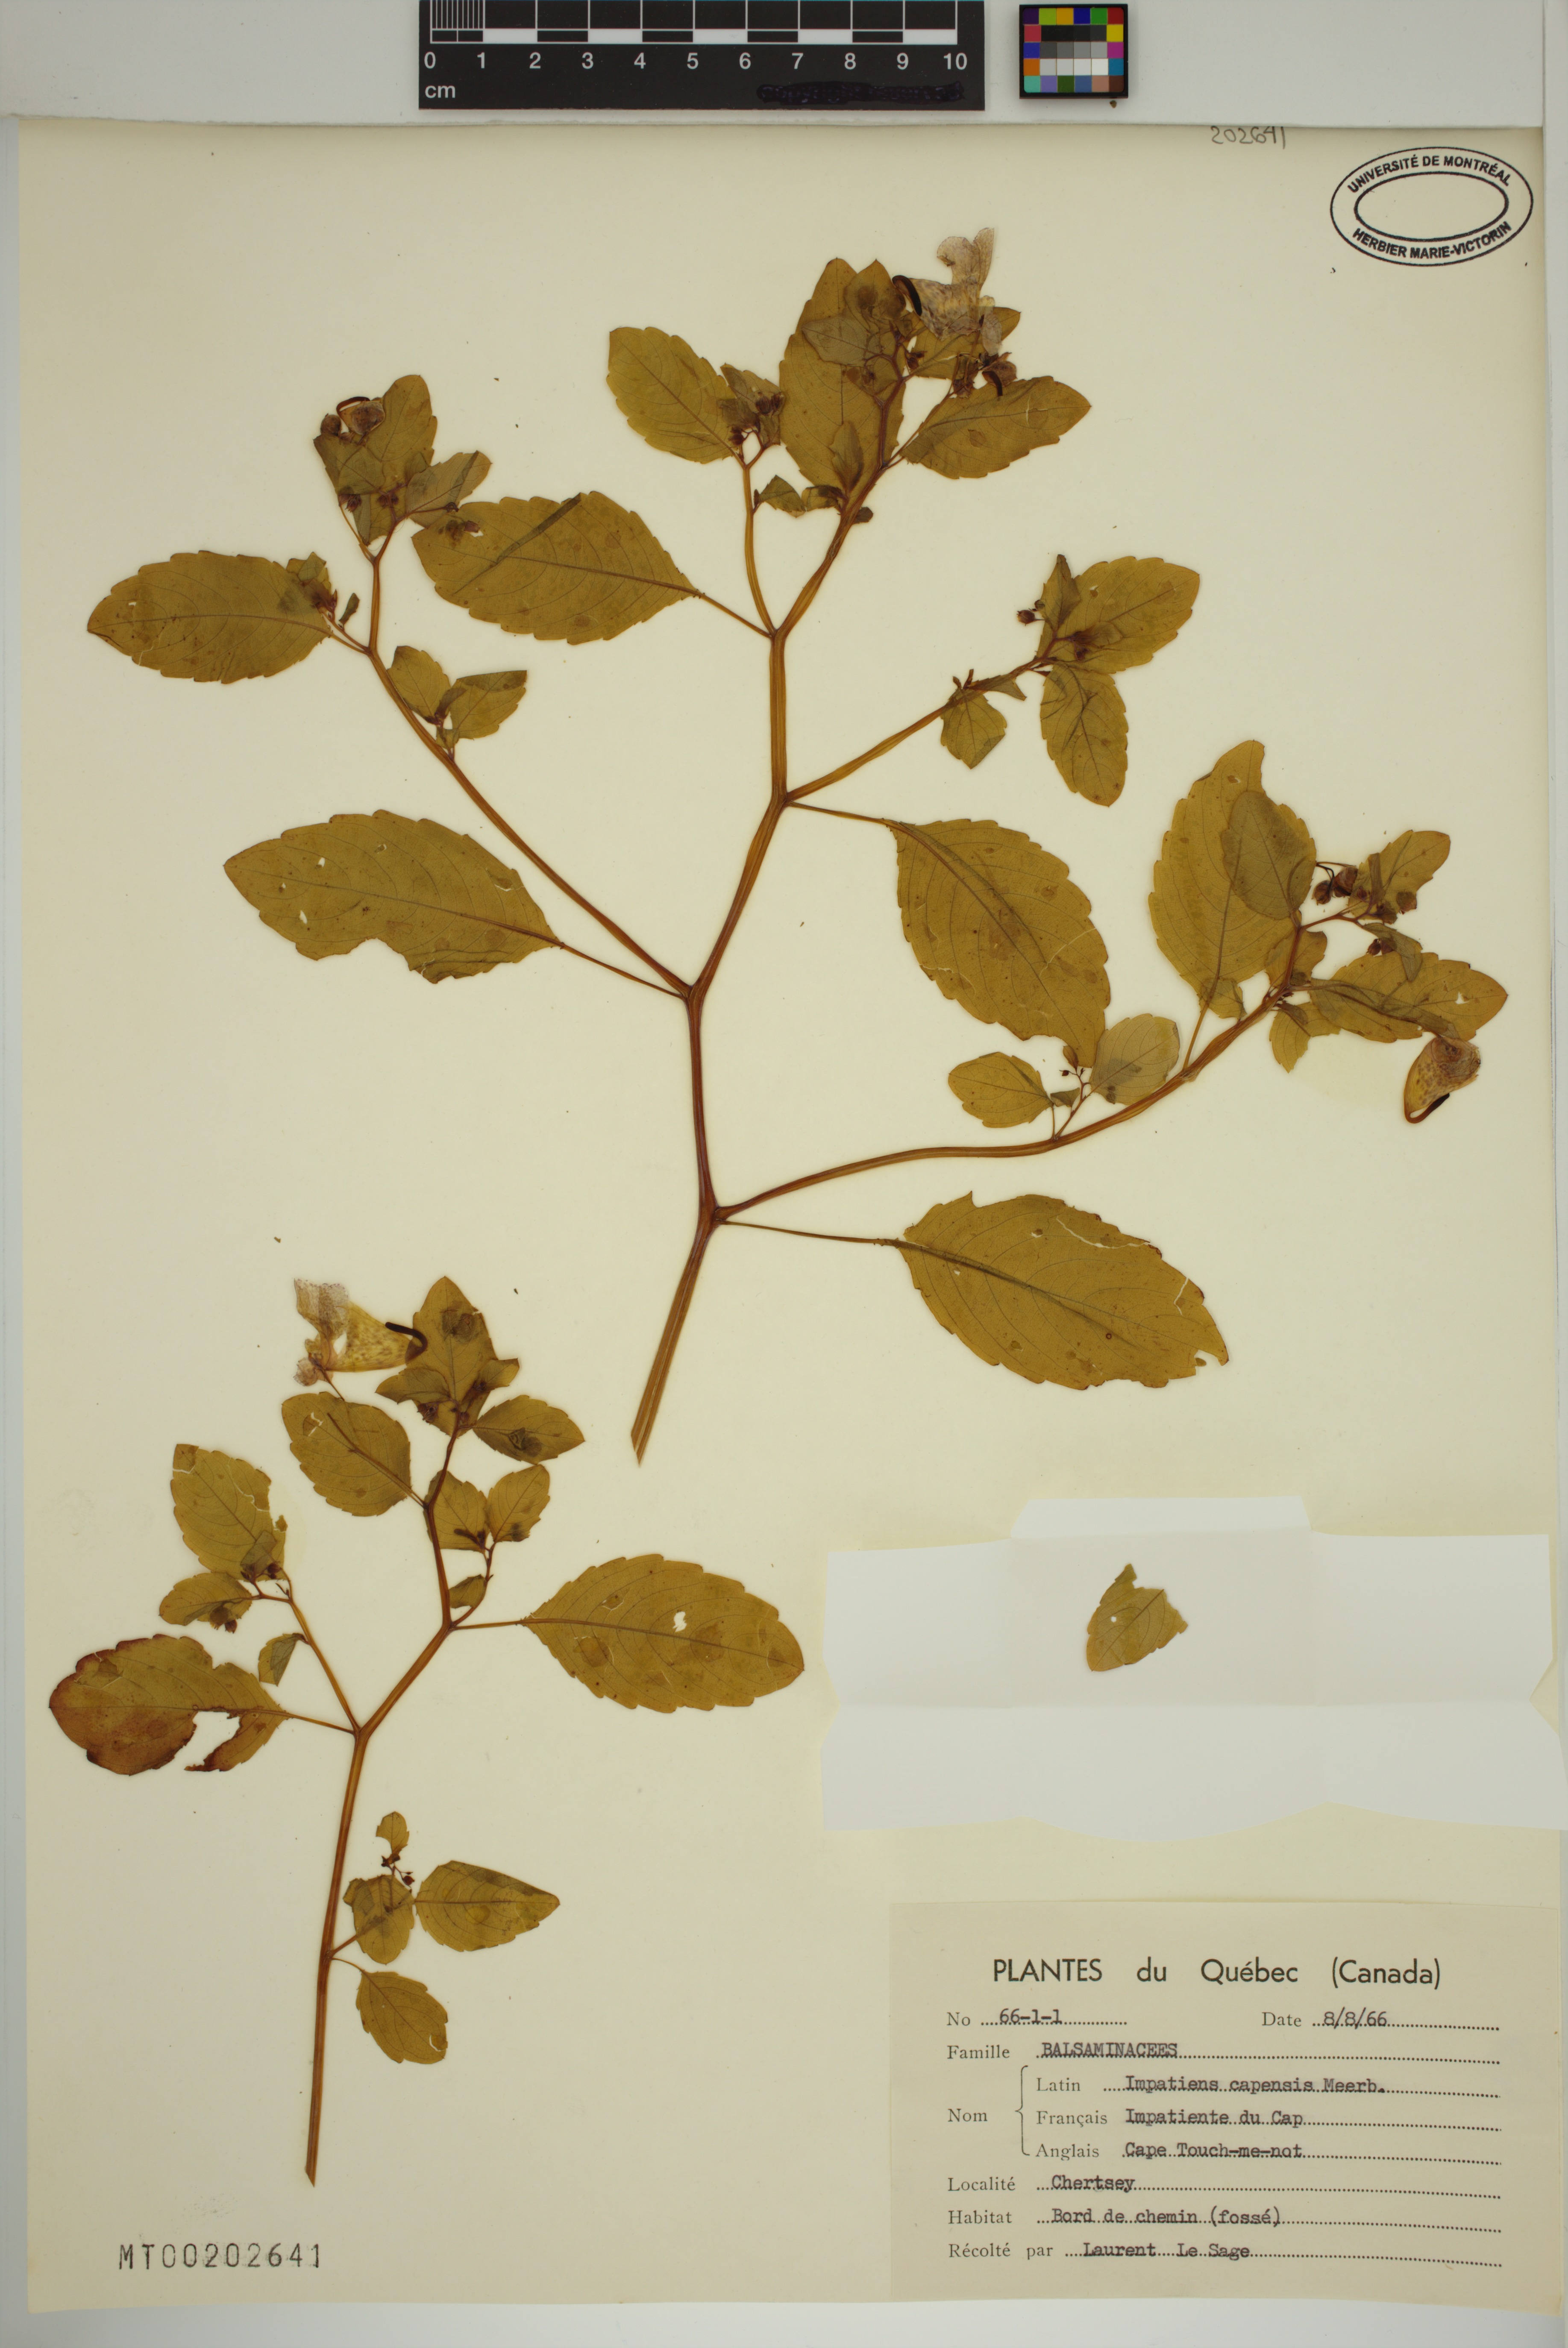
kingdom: Plantae
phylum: Tracheophyta
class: Magnoliopsida
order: Ericales
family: Balsaminaceae
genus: Impatiens
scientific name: Impatiens capensis
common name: Orange balsam
